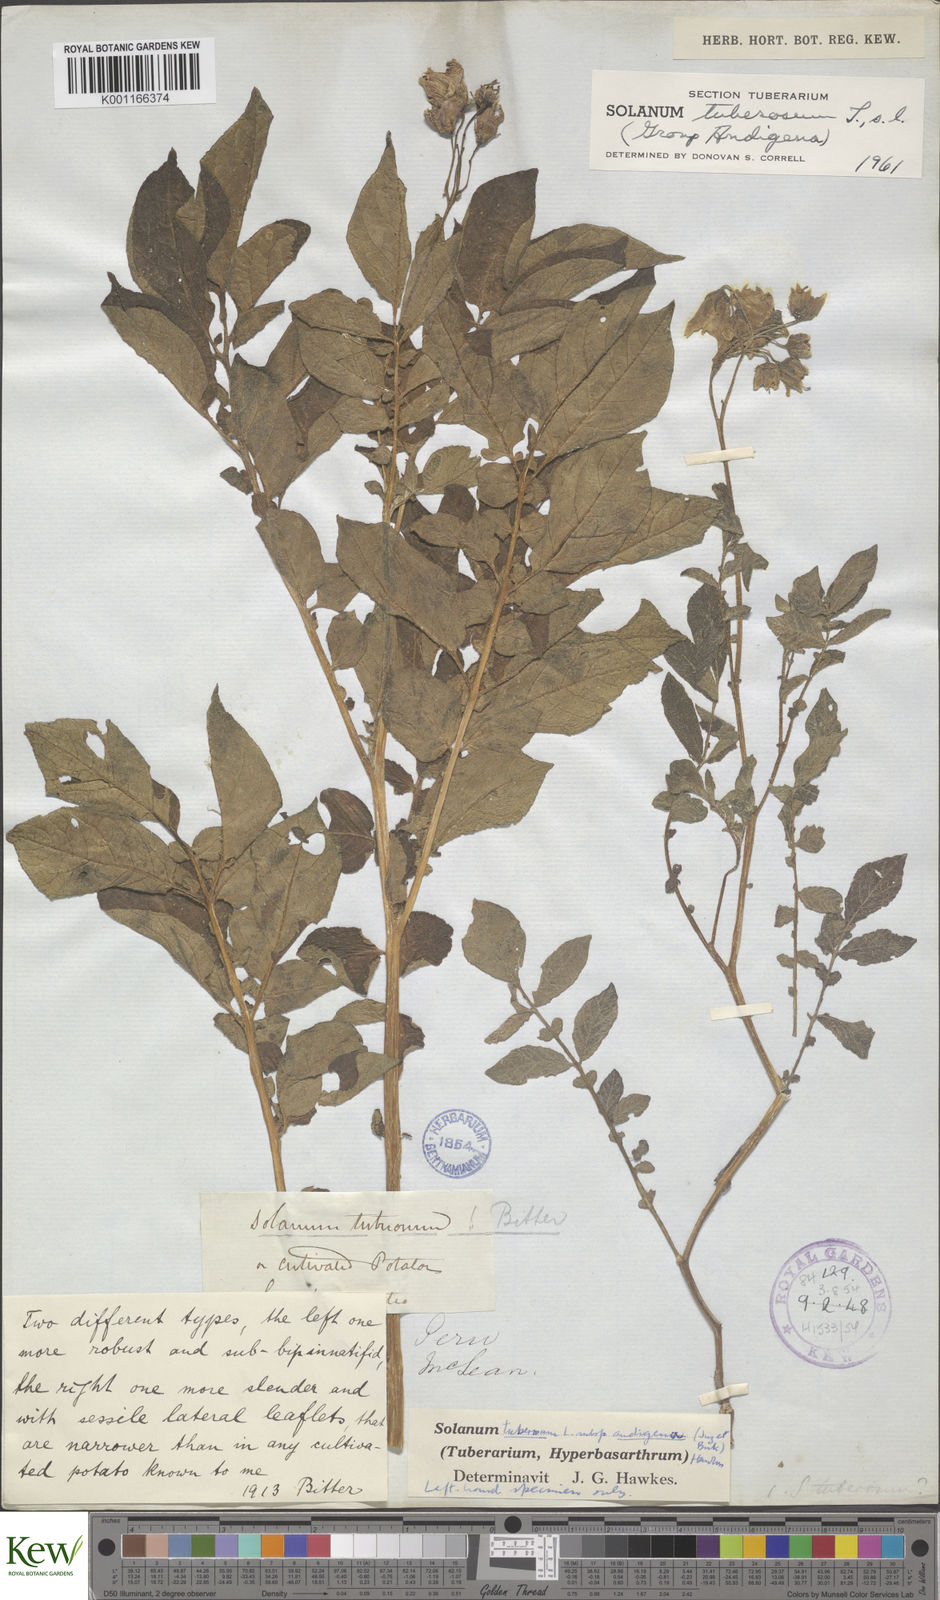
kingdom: Plantae
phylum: Tracheophyta
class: Magnoliopsida
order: Solanales
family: Solanaceae
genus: Solanum
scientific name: Solanum tuberosum
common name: Potato
